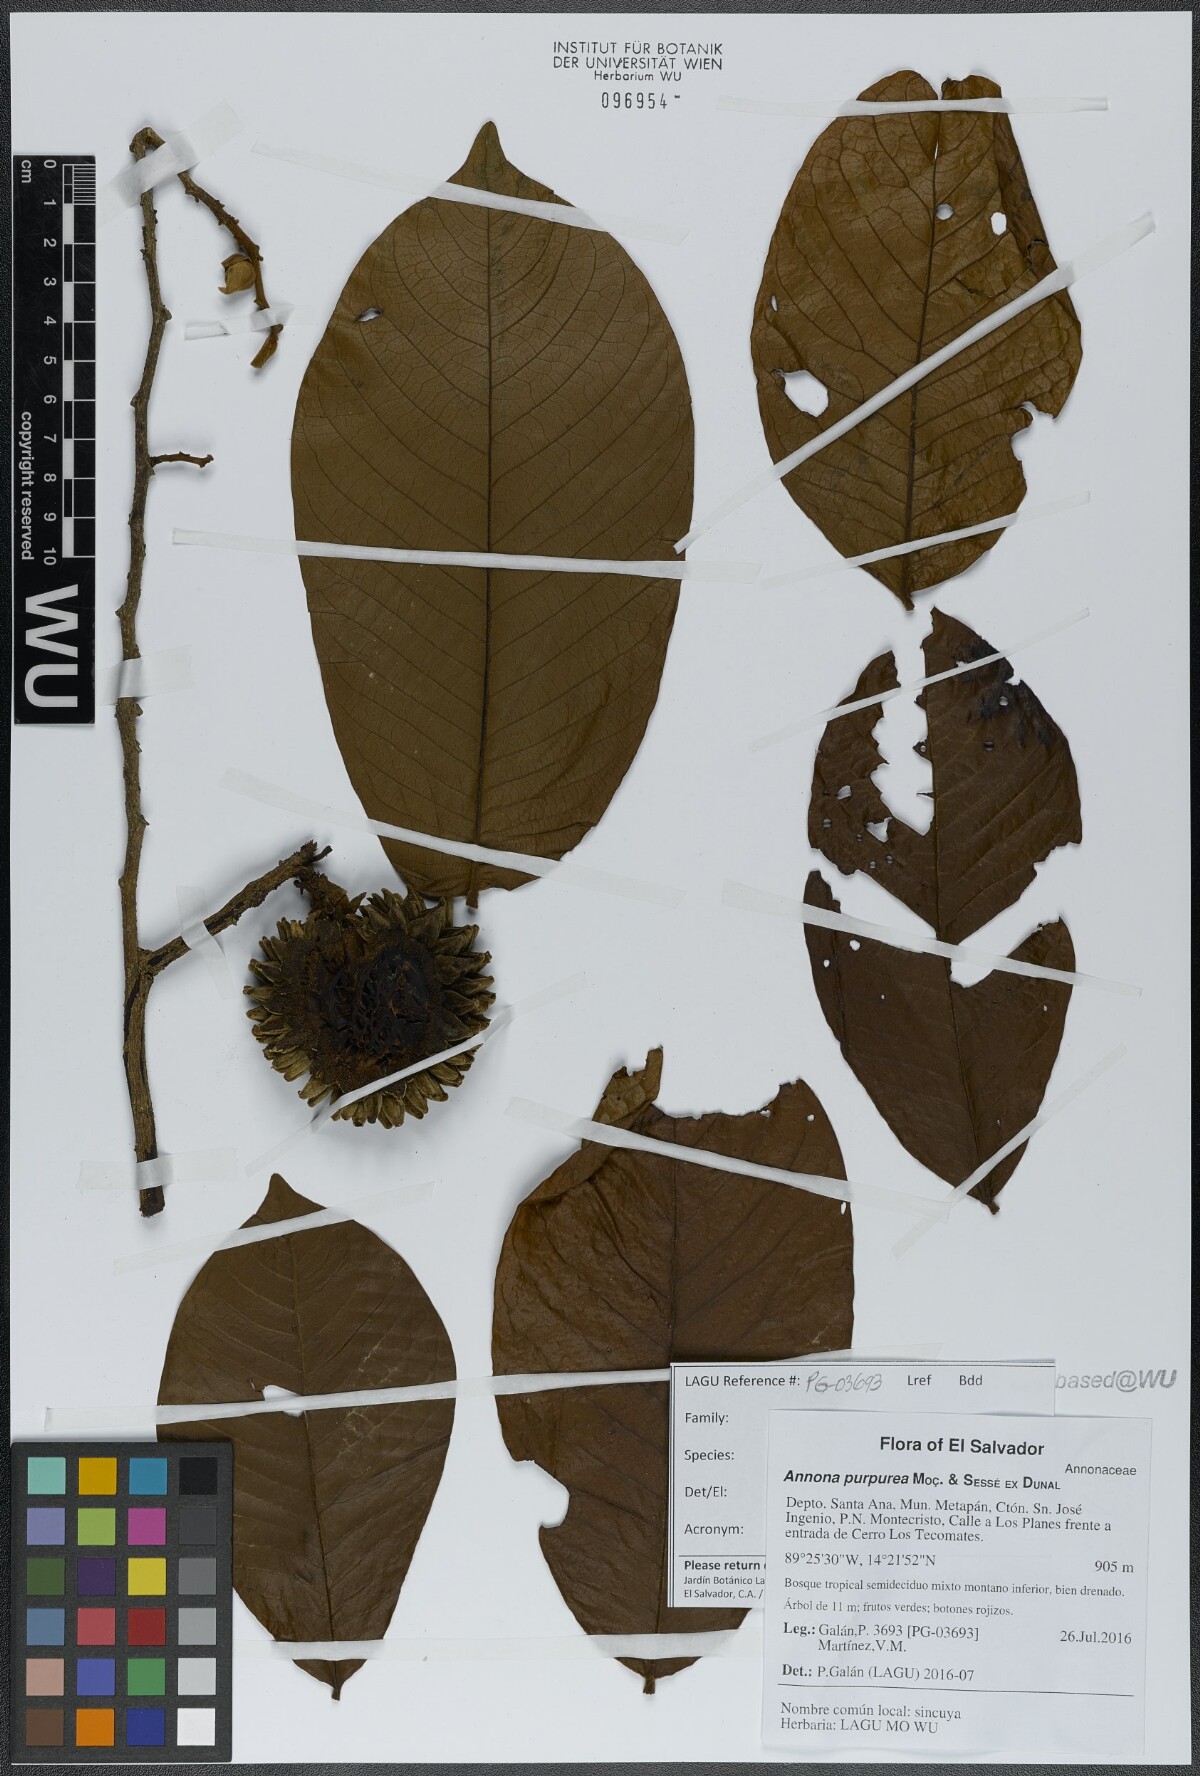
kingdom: Plantae
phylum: Tracheophyta
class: Magnoliopsida
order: Magnoliales
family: Annonaceae
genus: Annona
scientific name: Annona purpurea
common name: Negrohead
